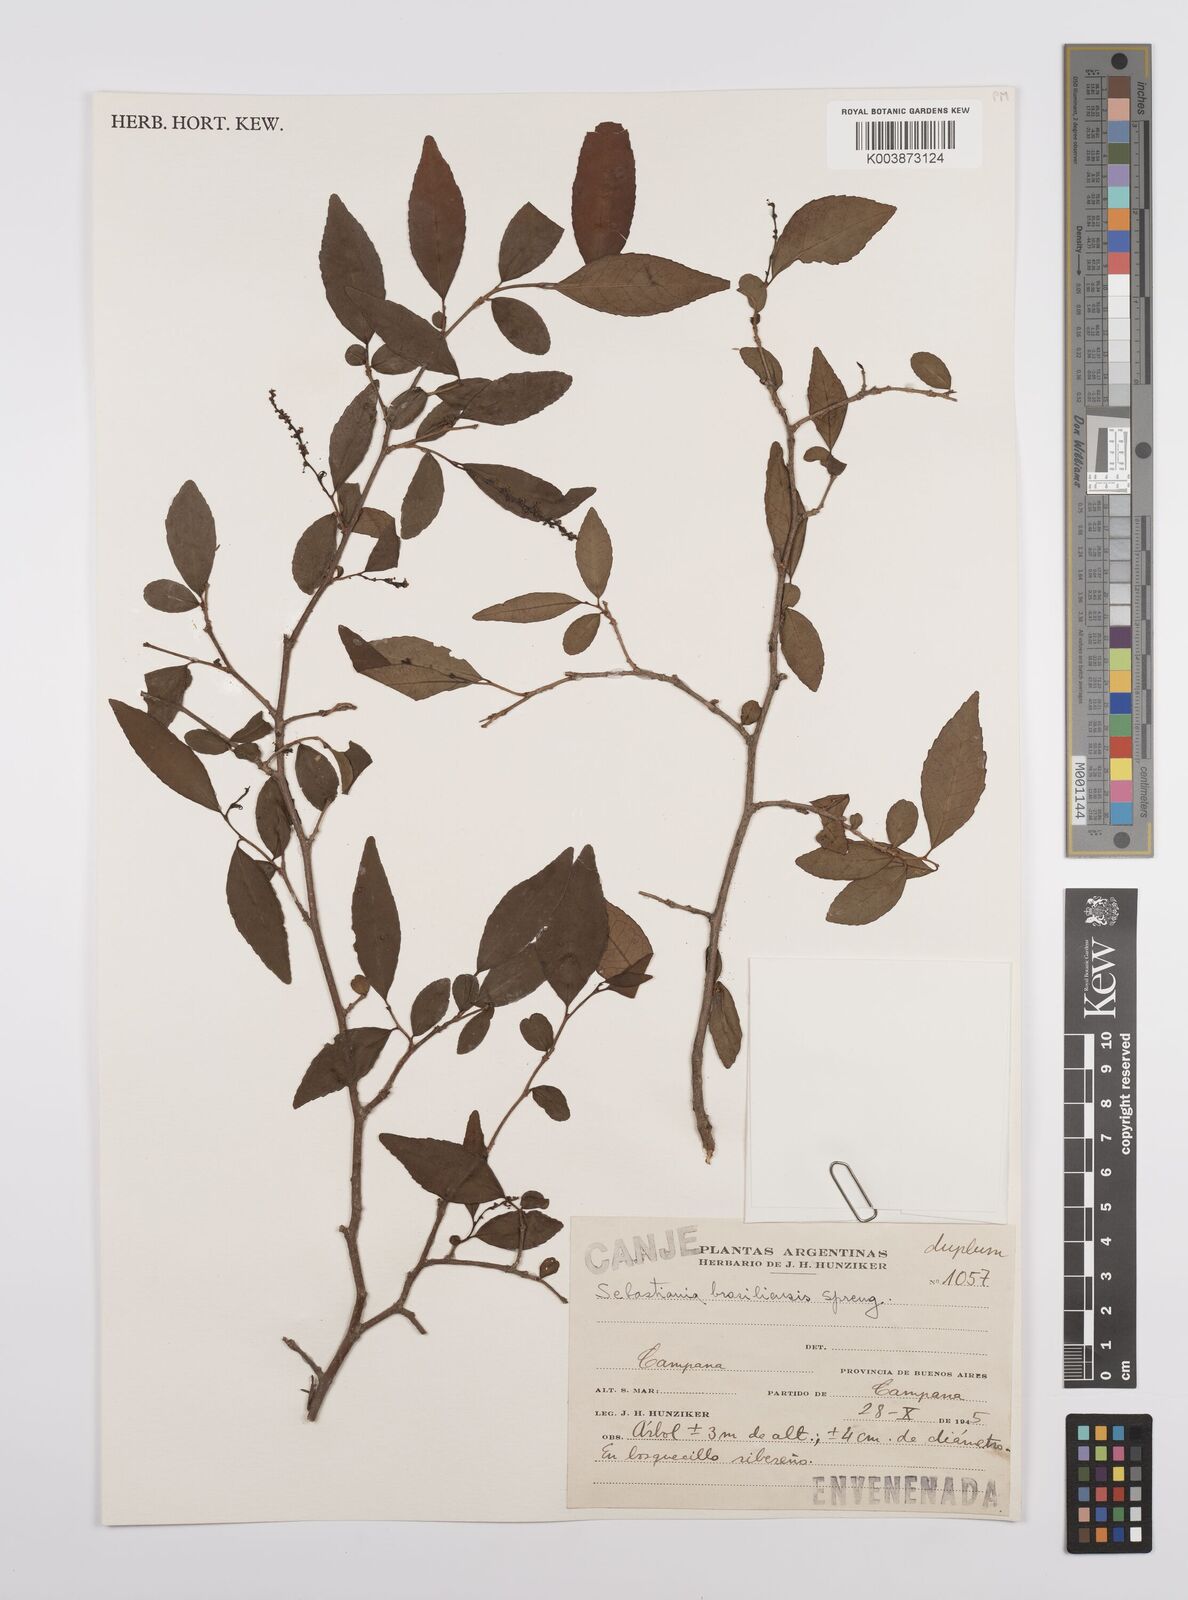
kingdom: Plantae
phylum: Tracheophyta
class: Magnoliopsida
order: Malpighiales
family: Euphorbiaceae
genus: Sebastiania
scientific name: Sebastiania brasiliensis
